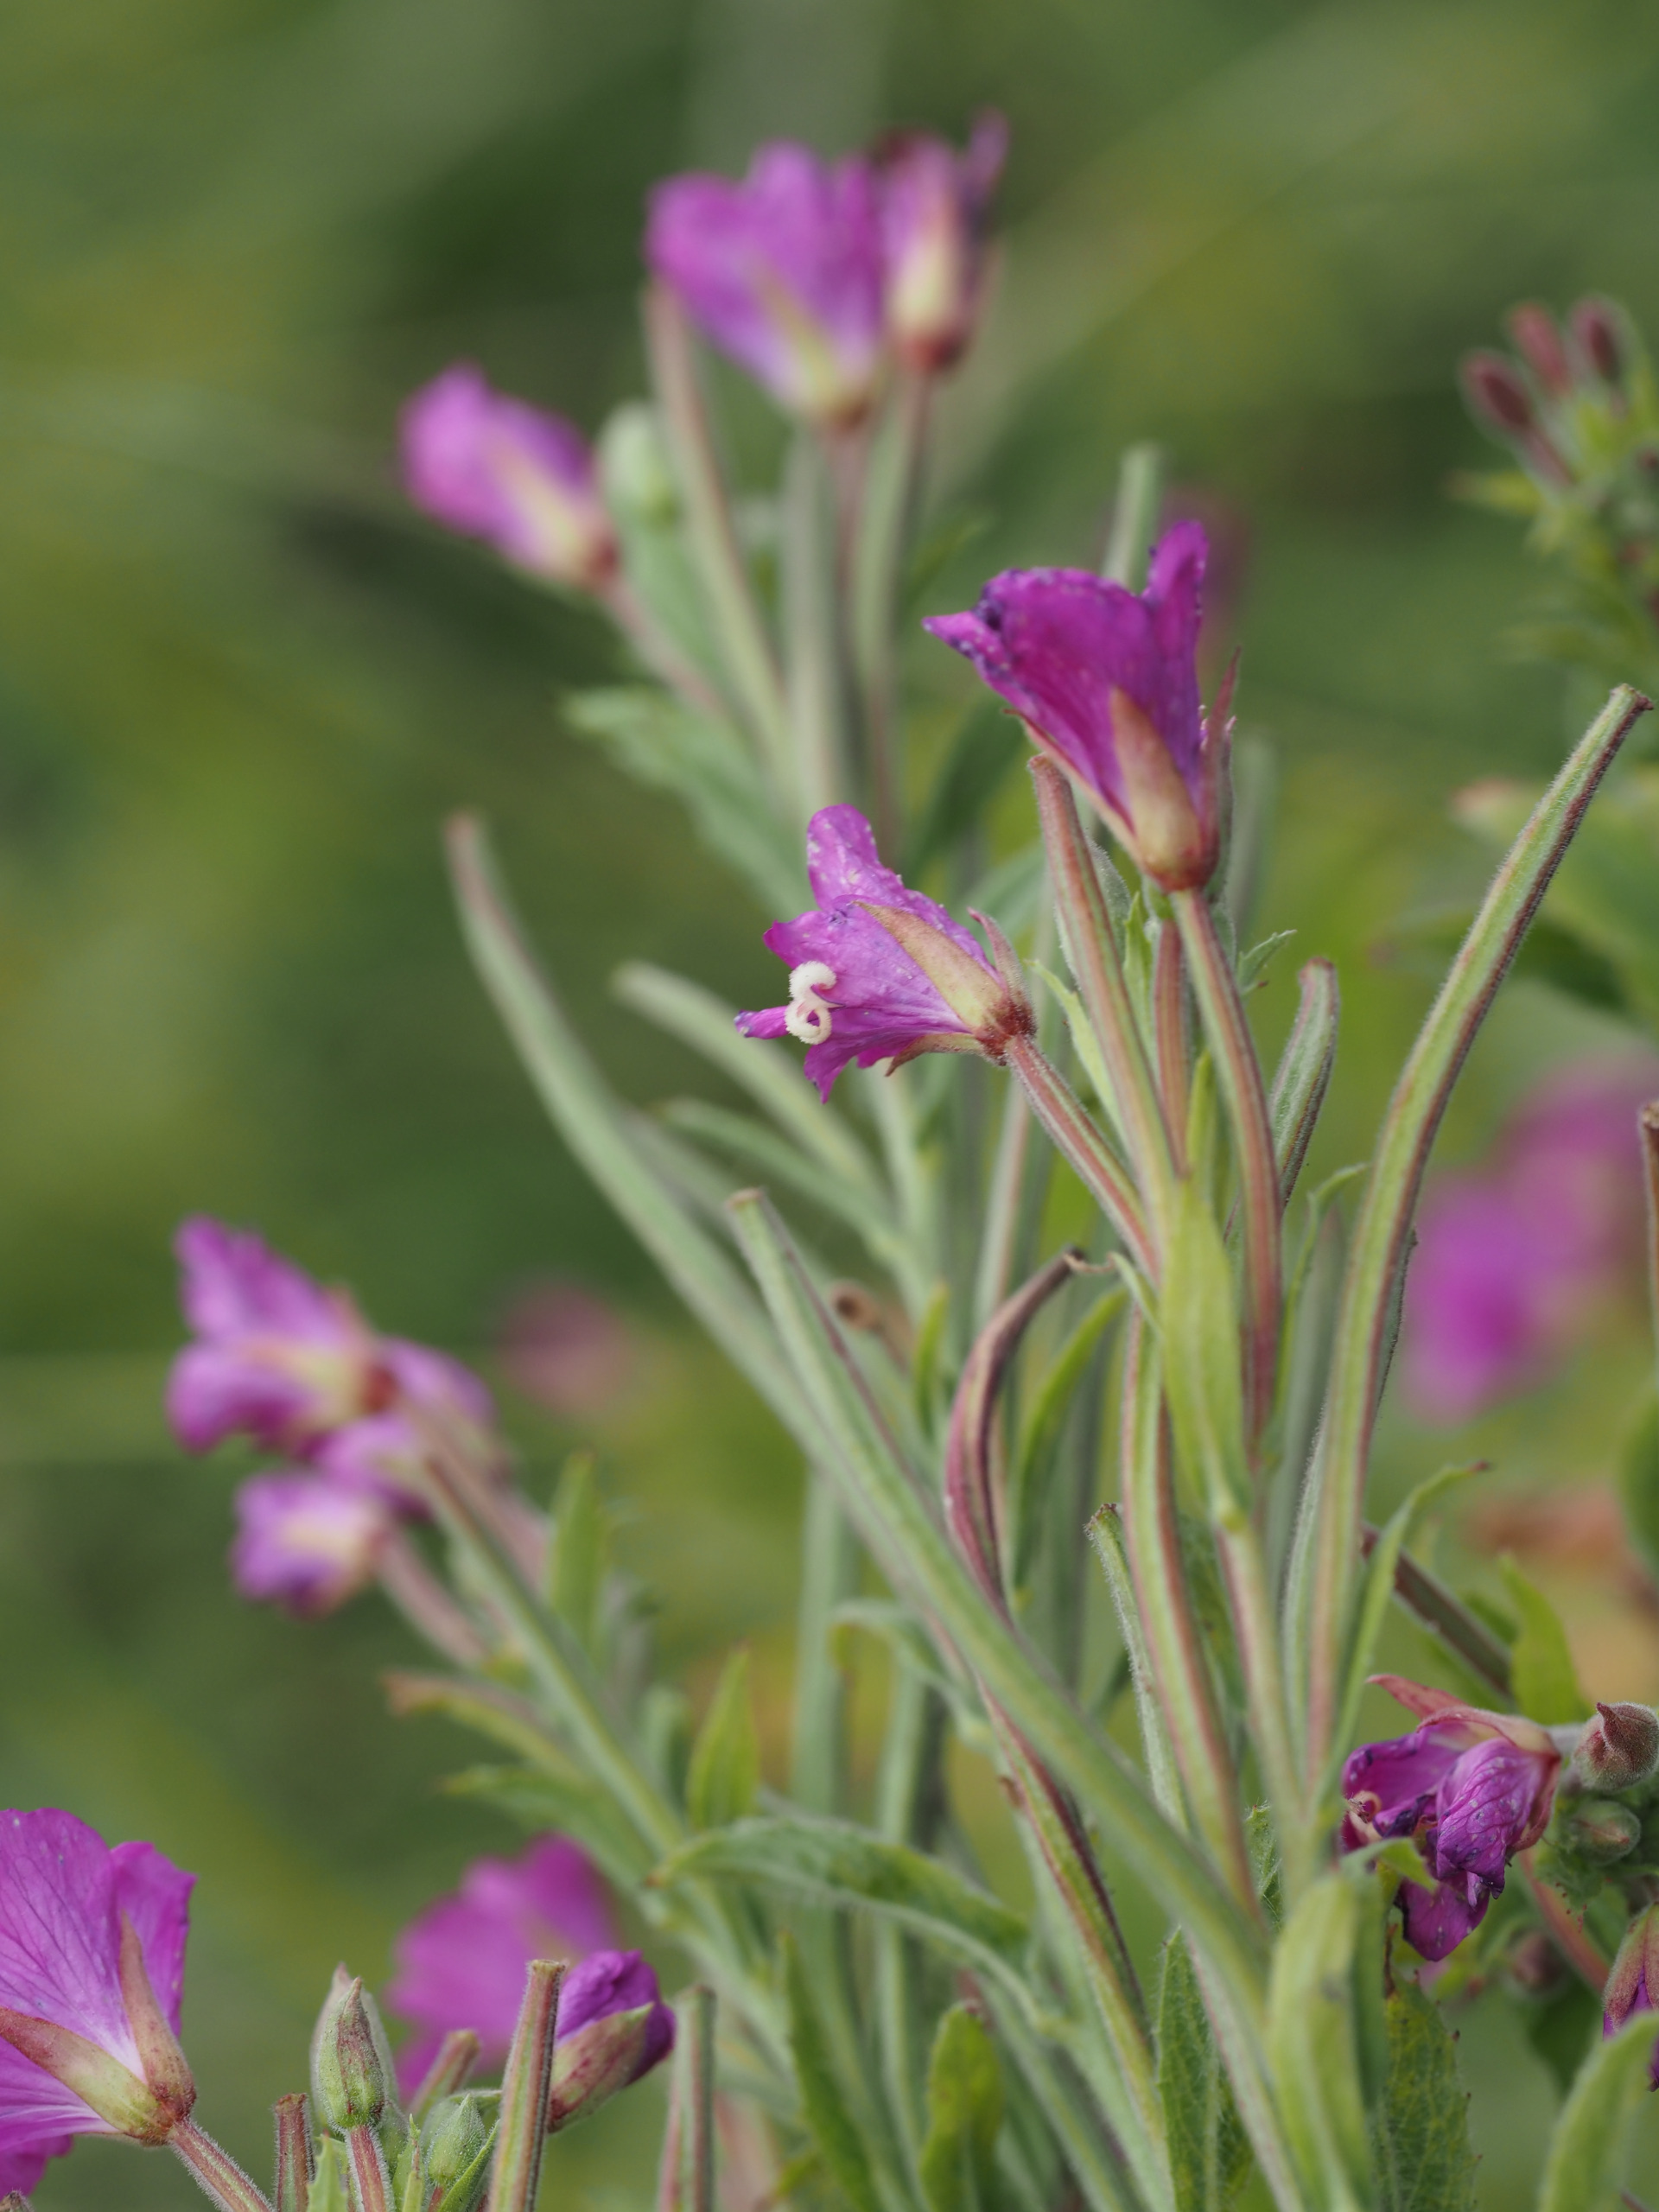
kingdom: Plantae
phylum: Tracheophyta
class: Magnoliopsida
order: Myrtales
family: Onagraceae
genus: Epilobium
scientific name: Epilobium hirsutum
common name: Lådden dueurt
